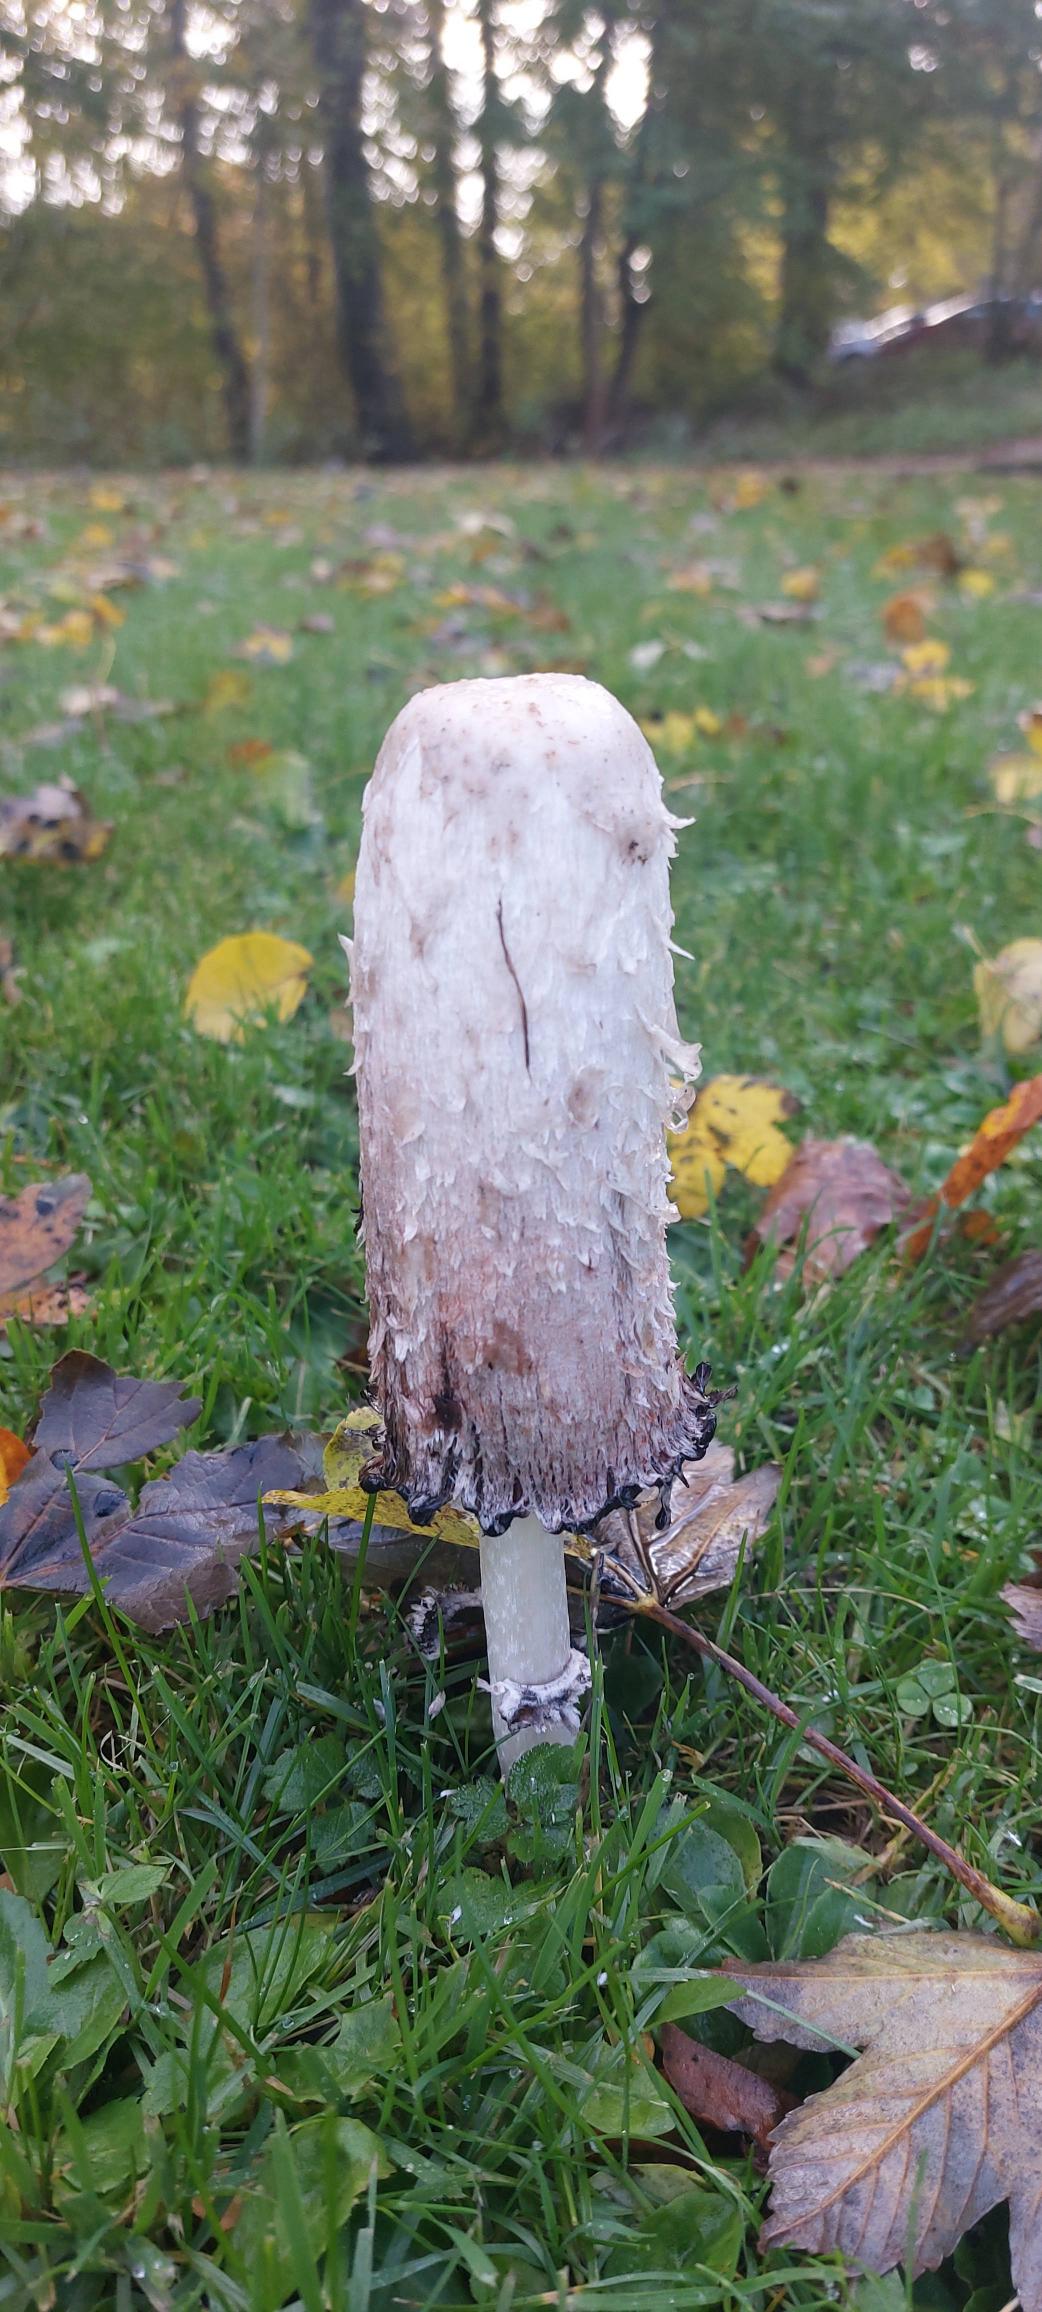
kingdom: Fungi
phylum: Basidiomycota
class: Agaricomycetes
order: Agaricales
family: Agaricaceae
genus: Coprinus
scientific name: Coprinus comatus
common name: Stor parykhat
